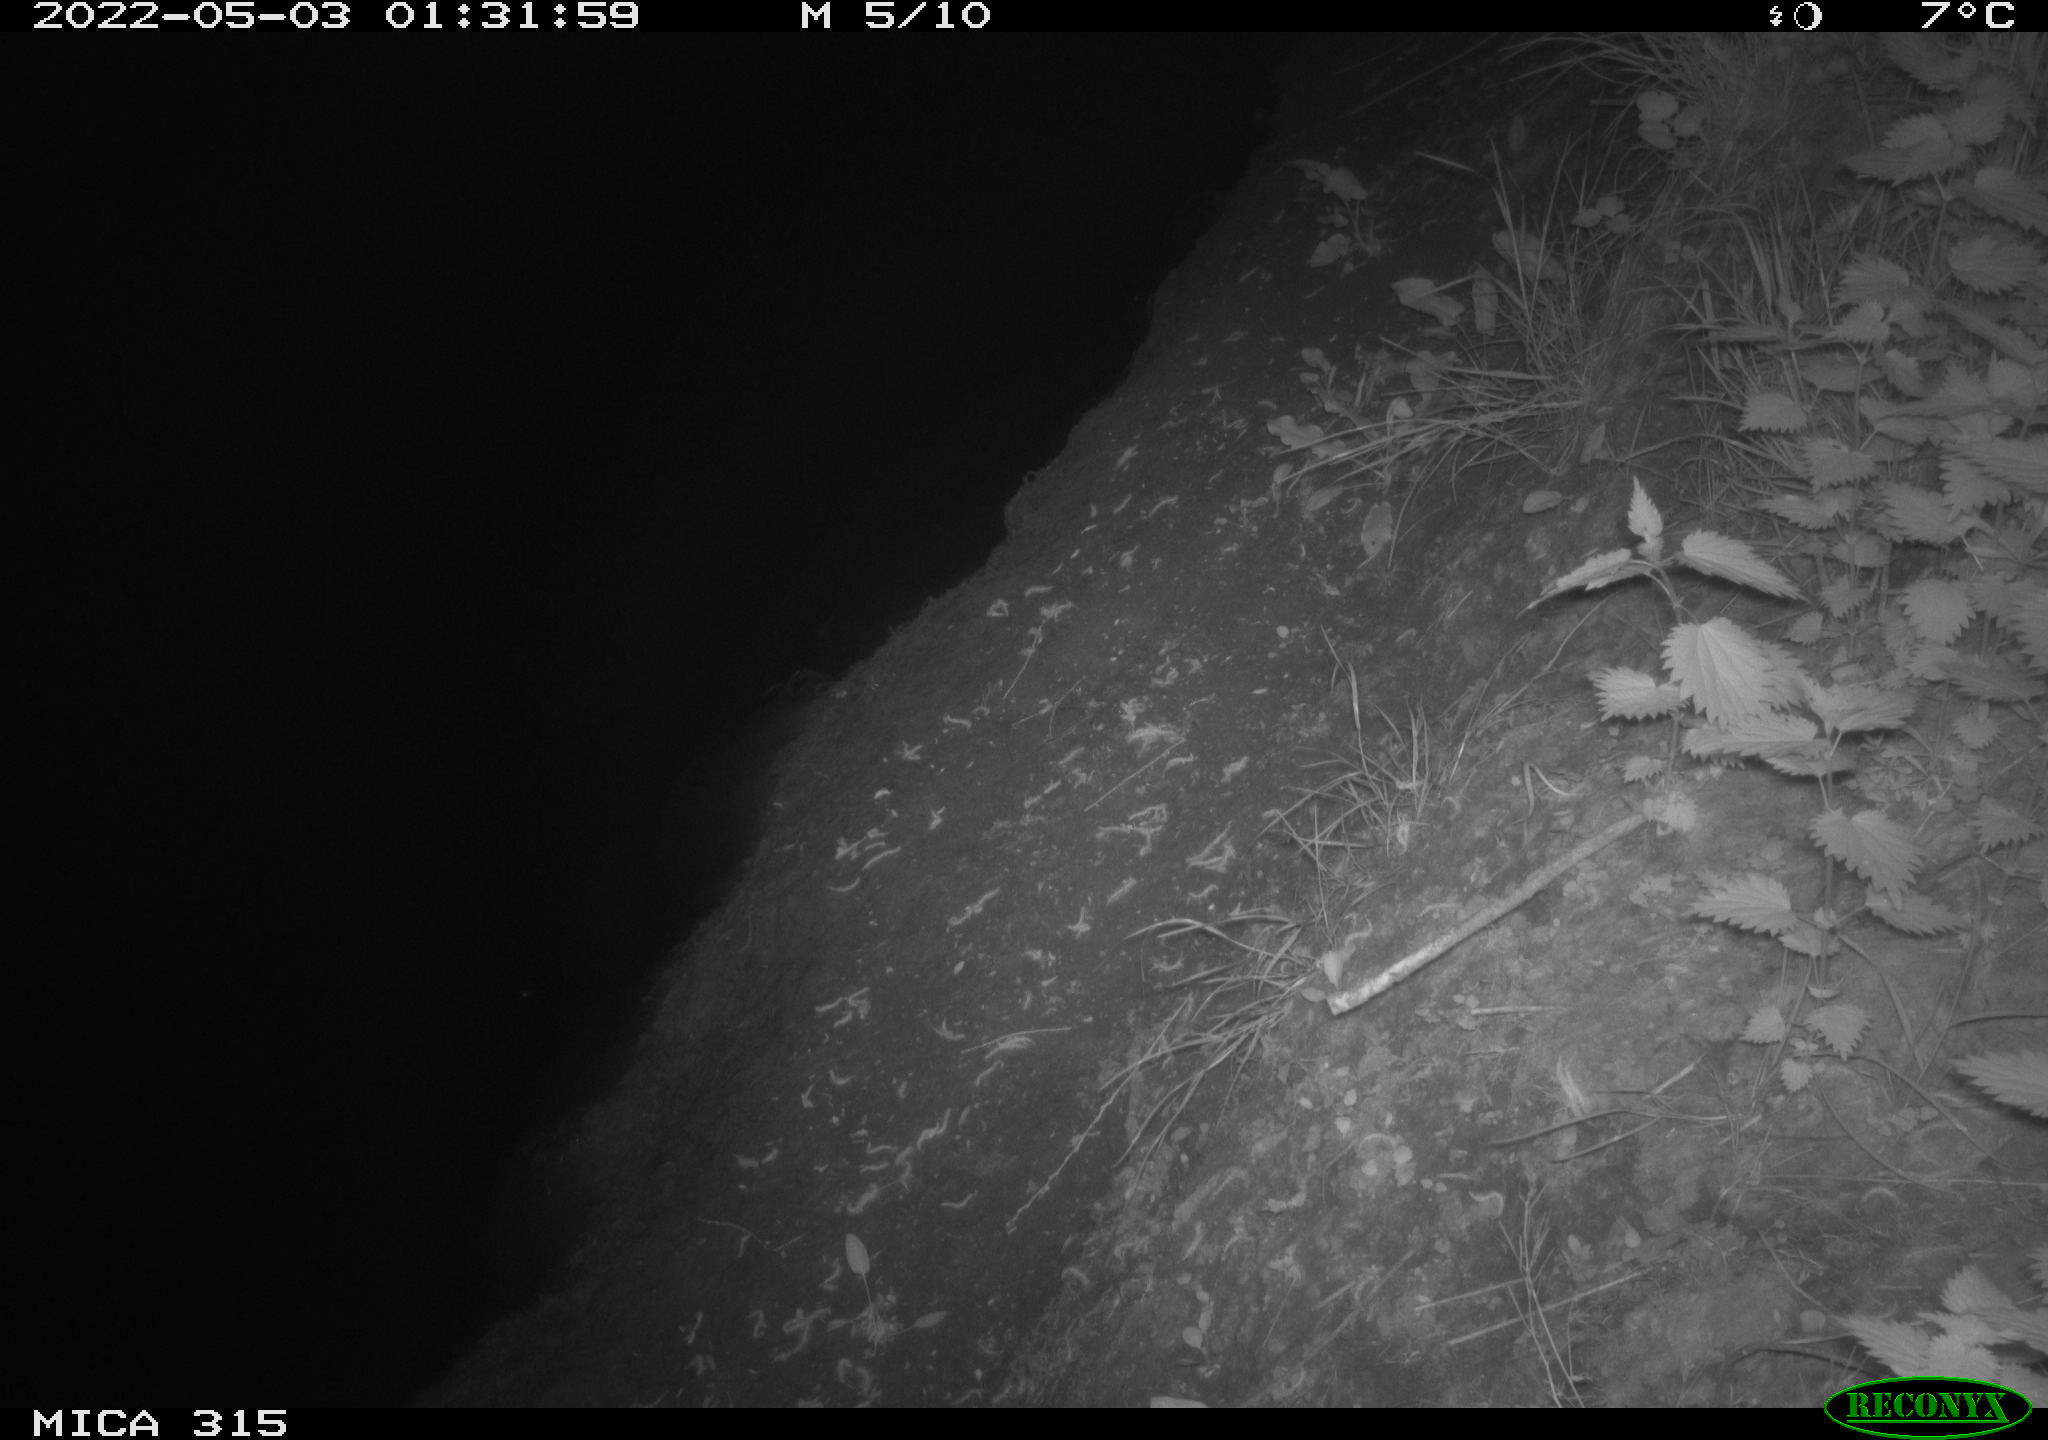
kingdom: Animalia
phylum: Chordata
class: Aves
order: Anseriformes
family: Anatidae
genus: Anas
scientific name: Anas platyrhynchos
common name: Mallard
